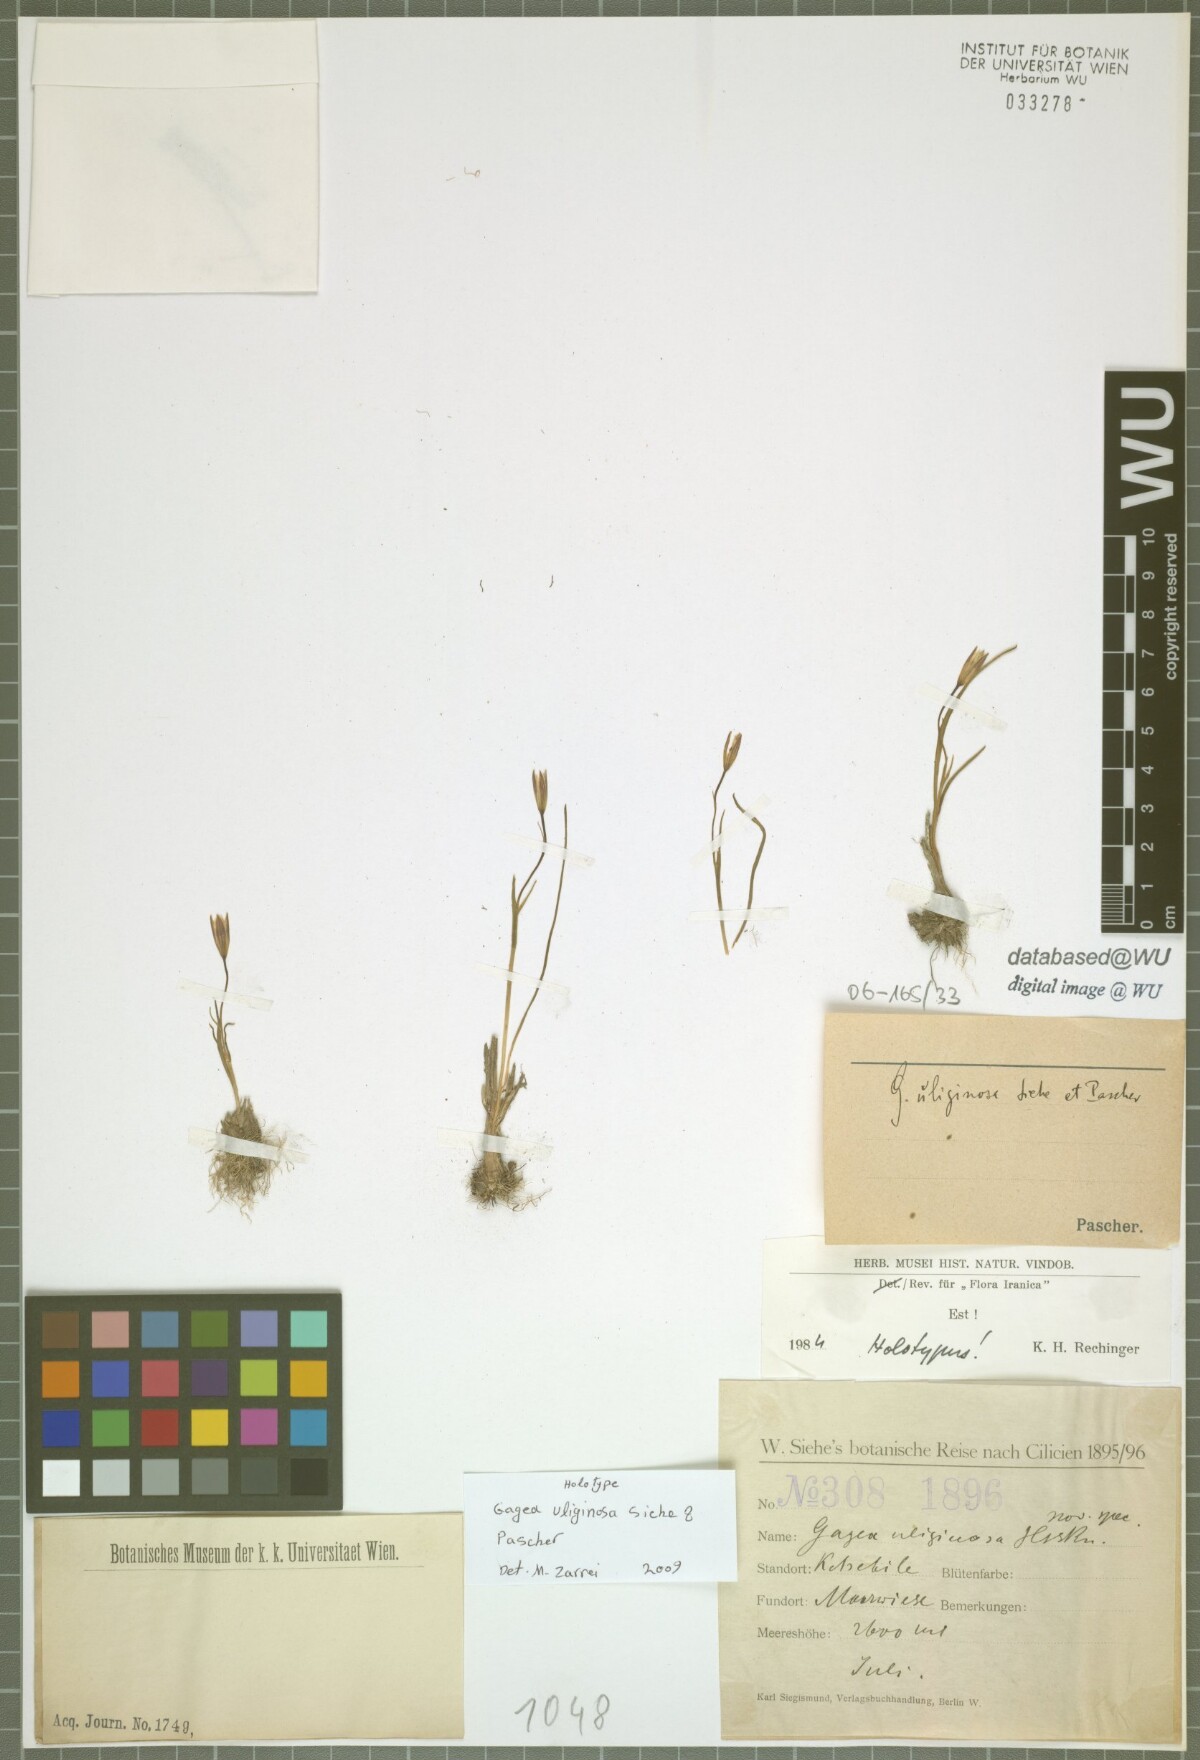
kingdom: Plantae
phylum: Tracheophyta
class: Liliopsida
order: Liliales
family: Liliaceae
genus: Gagea
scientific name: Gagea uliginosa
